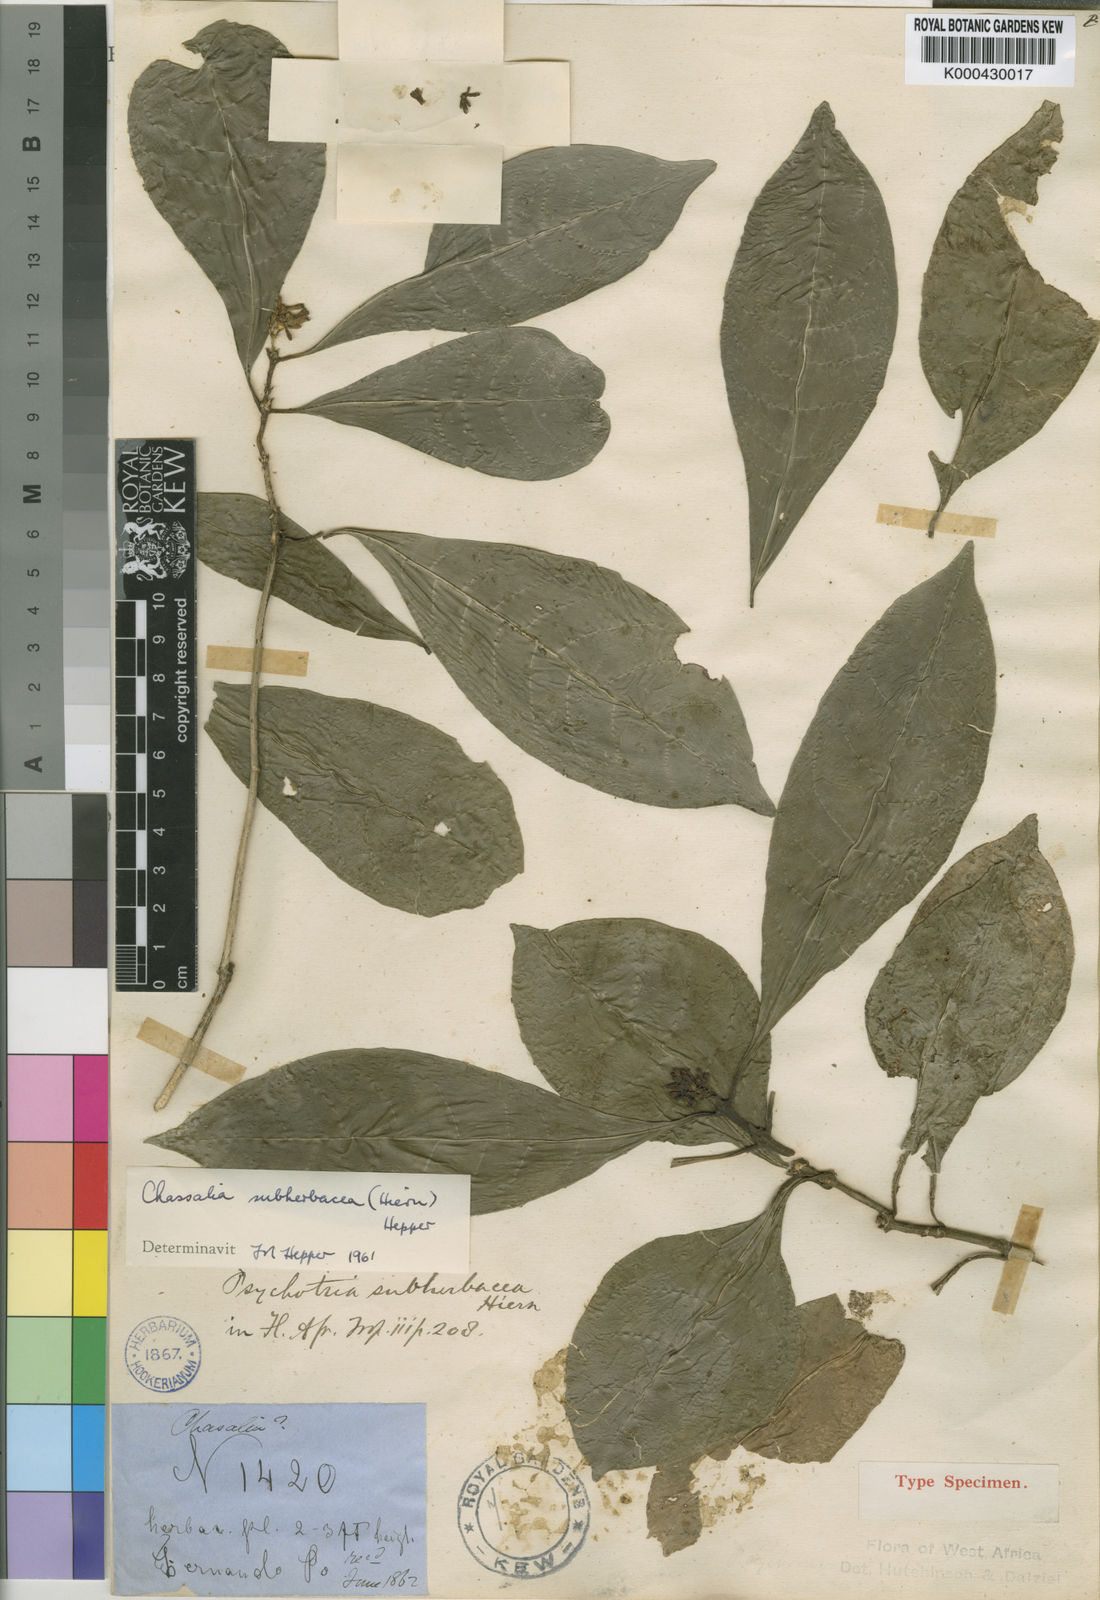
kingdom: Plantae
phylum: Tracheophyta
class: Magnoliopsida
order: Gentianales
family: Rubiaceae
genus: Chassalia
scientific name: Chassalia subherbacea
